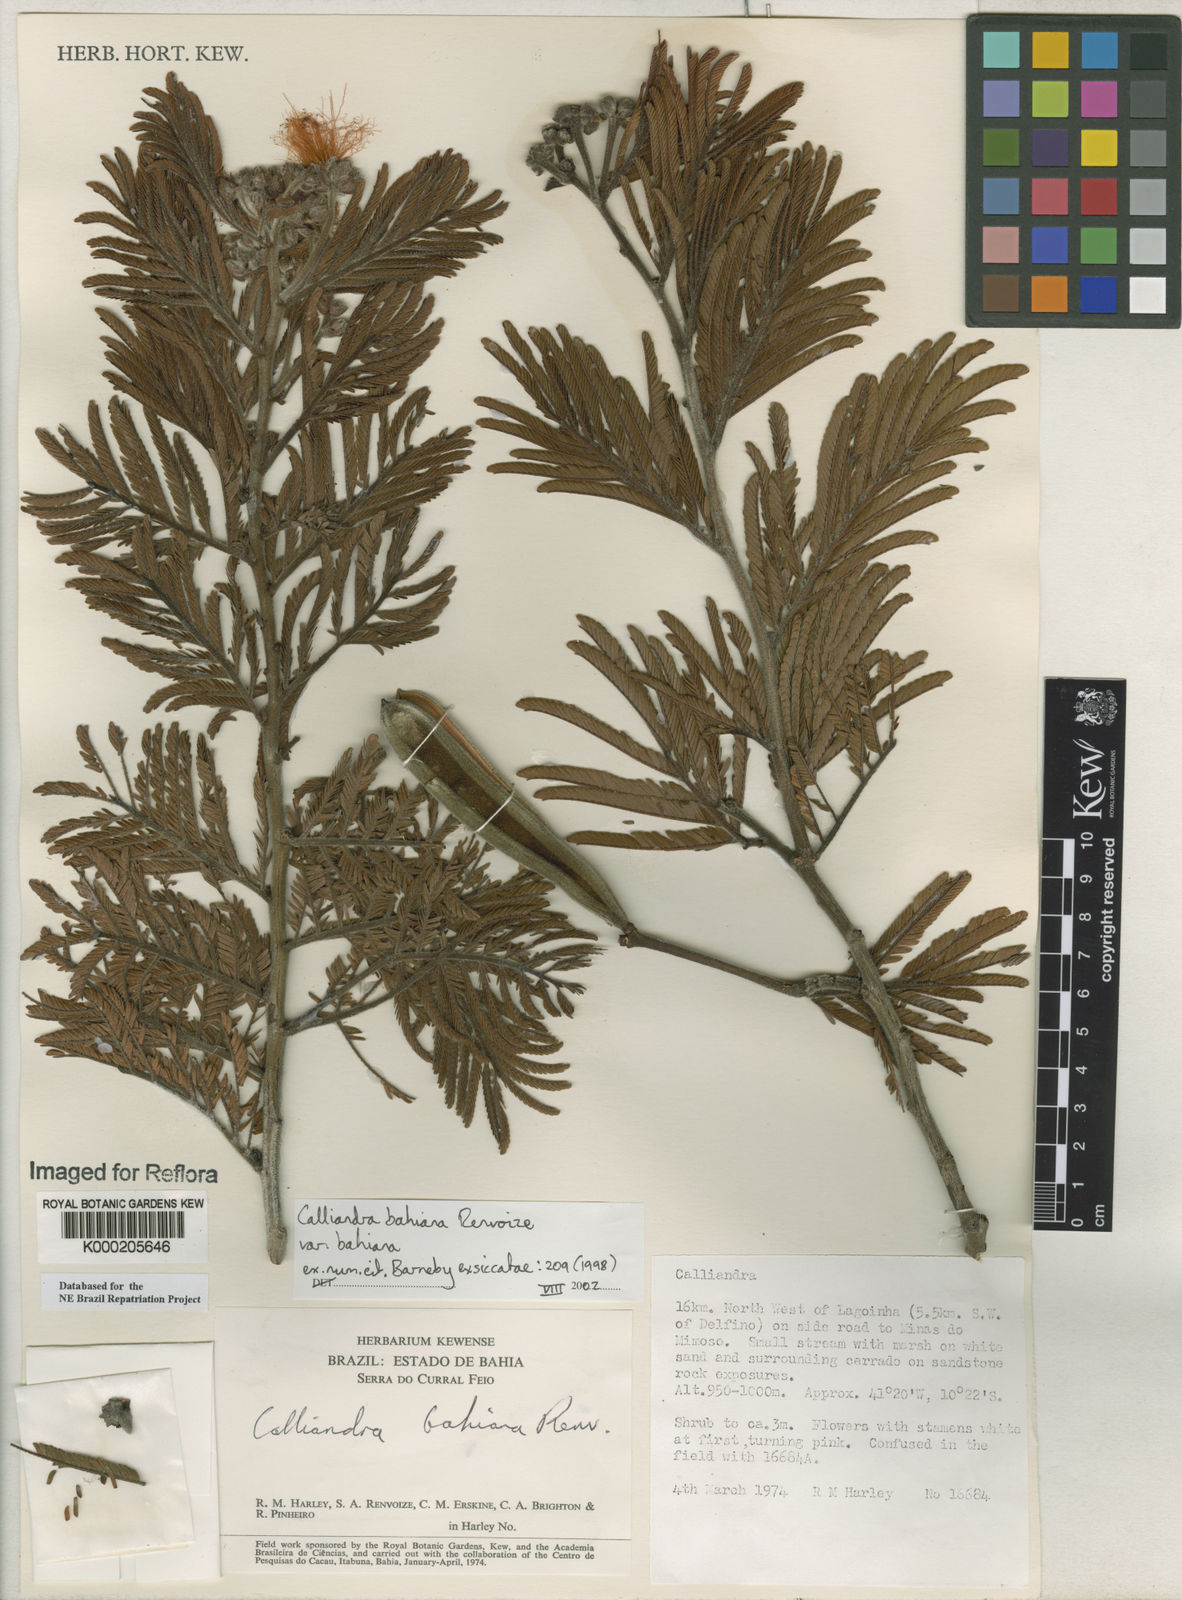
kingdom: Plantae
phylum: Tracheophyta
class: Magnoliopsida
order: Fabales
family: Fabaceae
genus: Calliandra
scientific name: Calliandra bahiana
